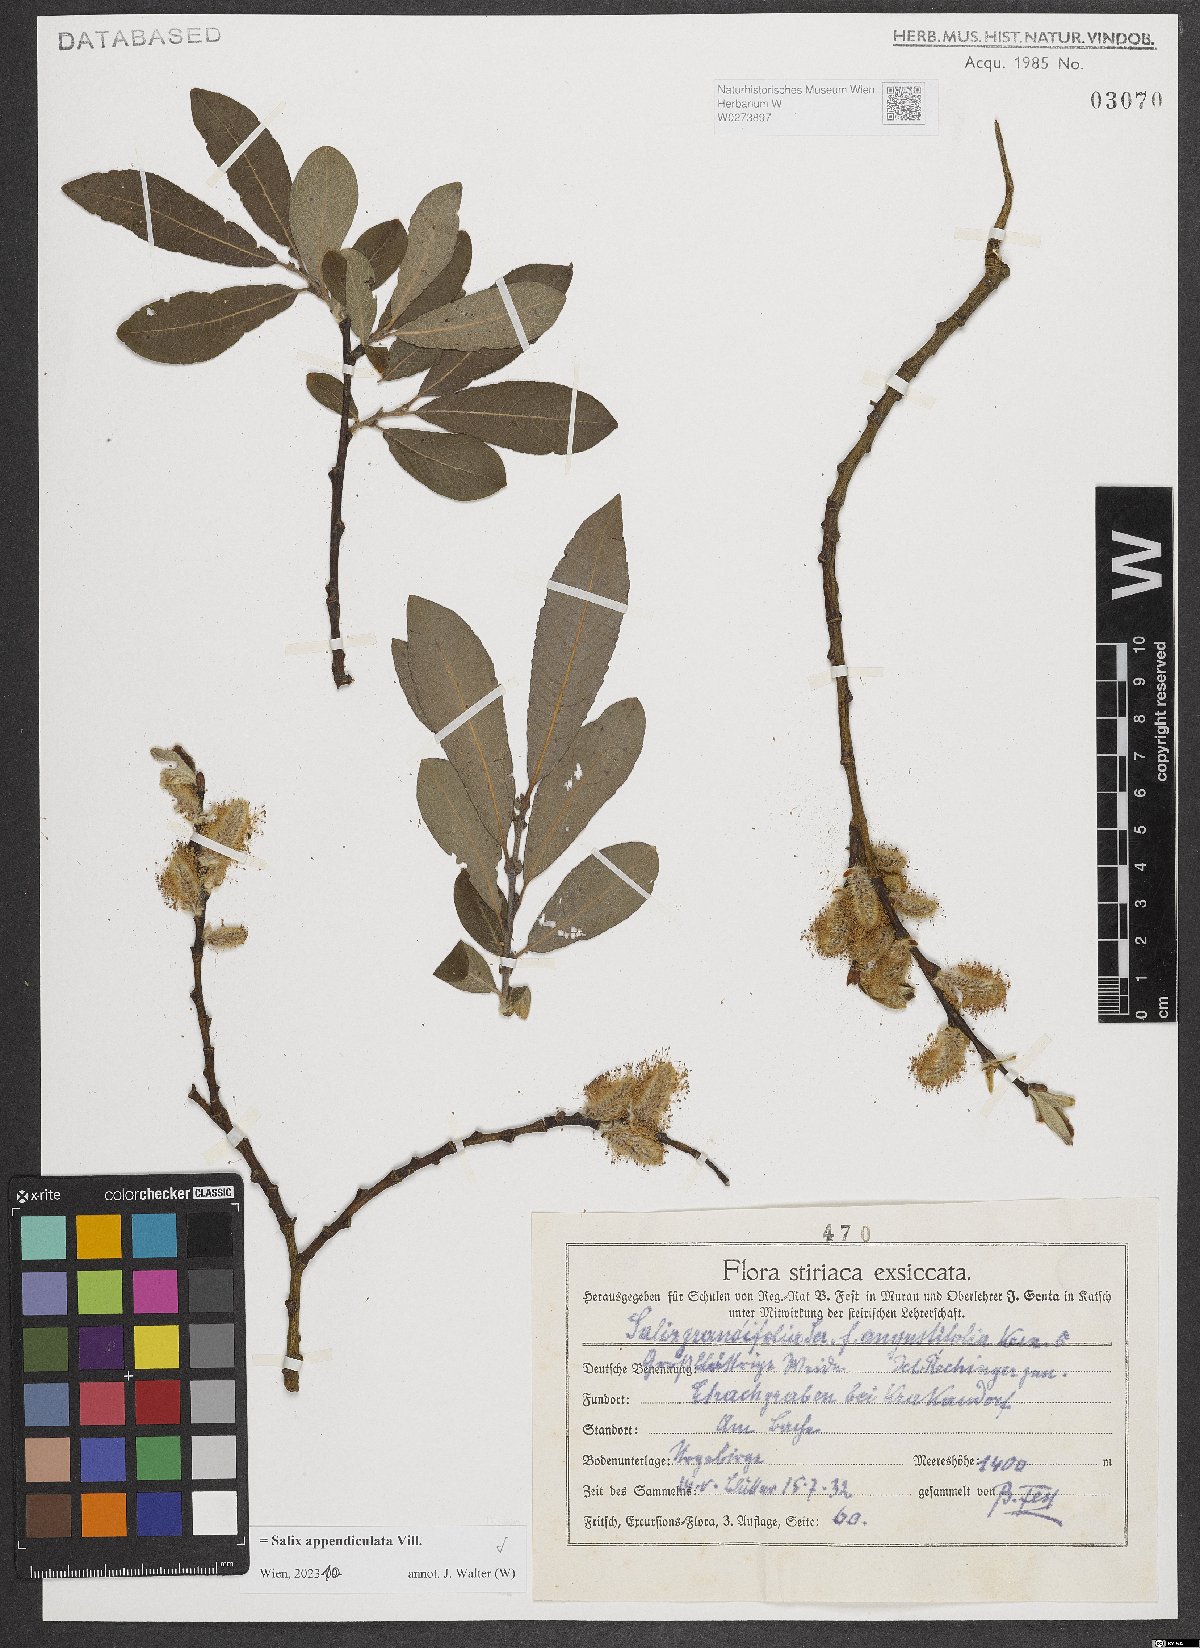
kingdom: Plantae
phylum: Tracheophyta
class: Magnoliopsida
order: Malpighiales
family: Salicaceae
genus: Salix
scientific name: Salix appendiculata
